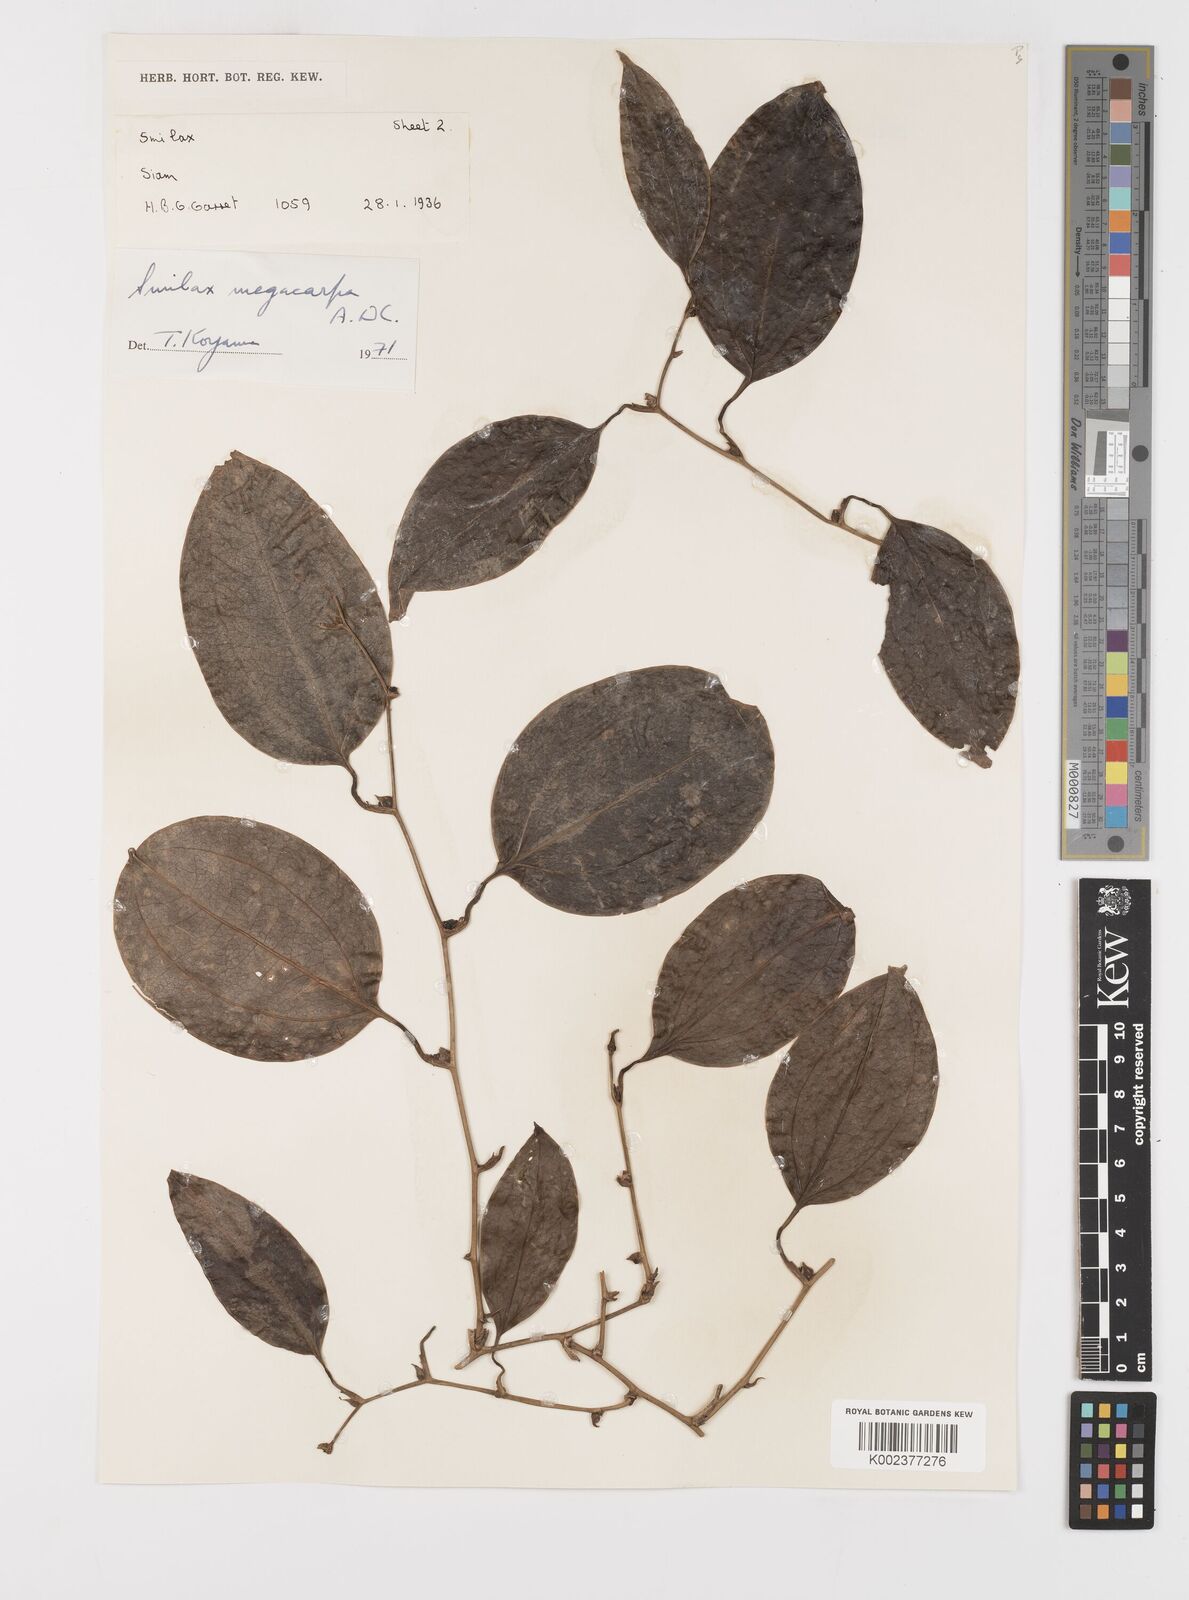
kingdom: Plantae
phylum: Tracheophyta
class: Liliopsida
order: Liliales
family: Smilacaceae
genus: Smilax
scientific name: Smilax megacarpa
